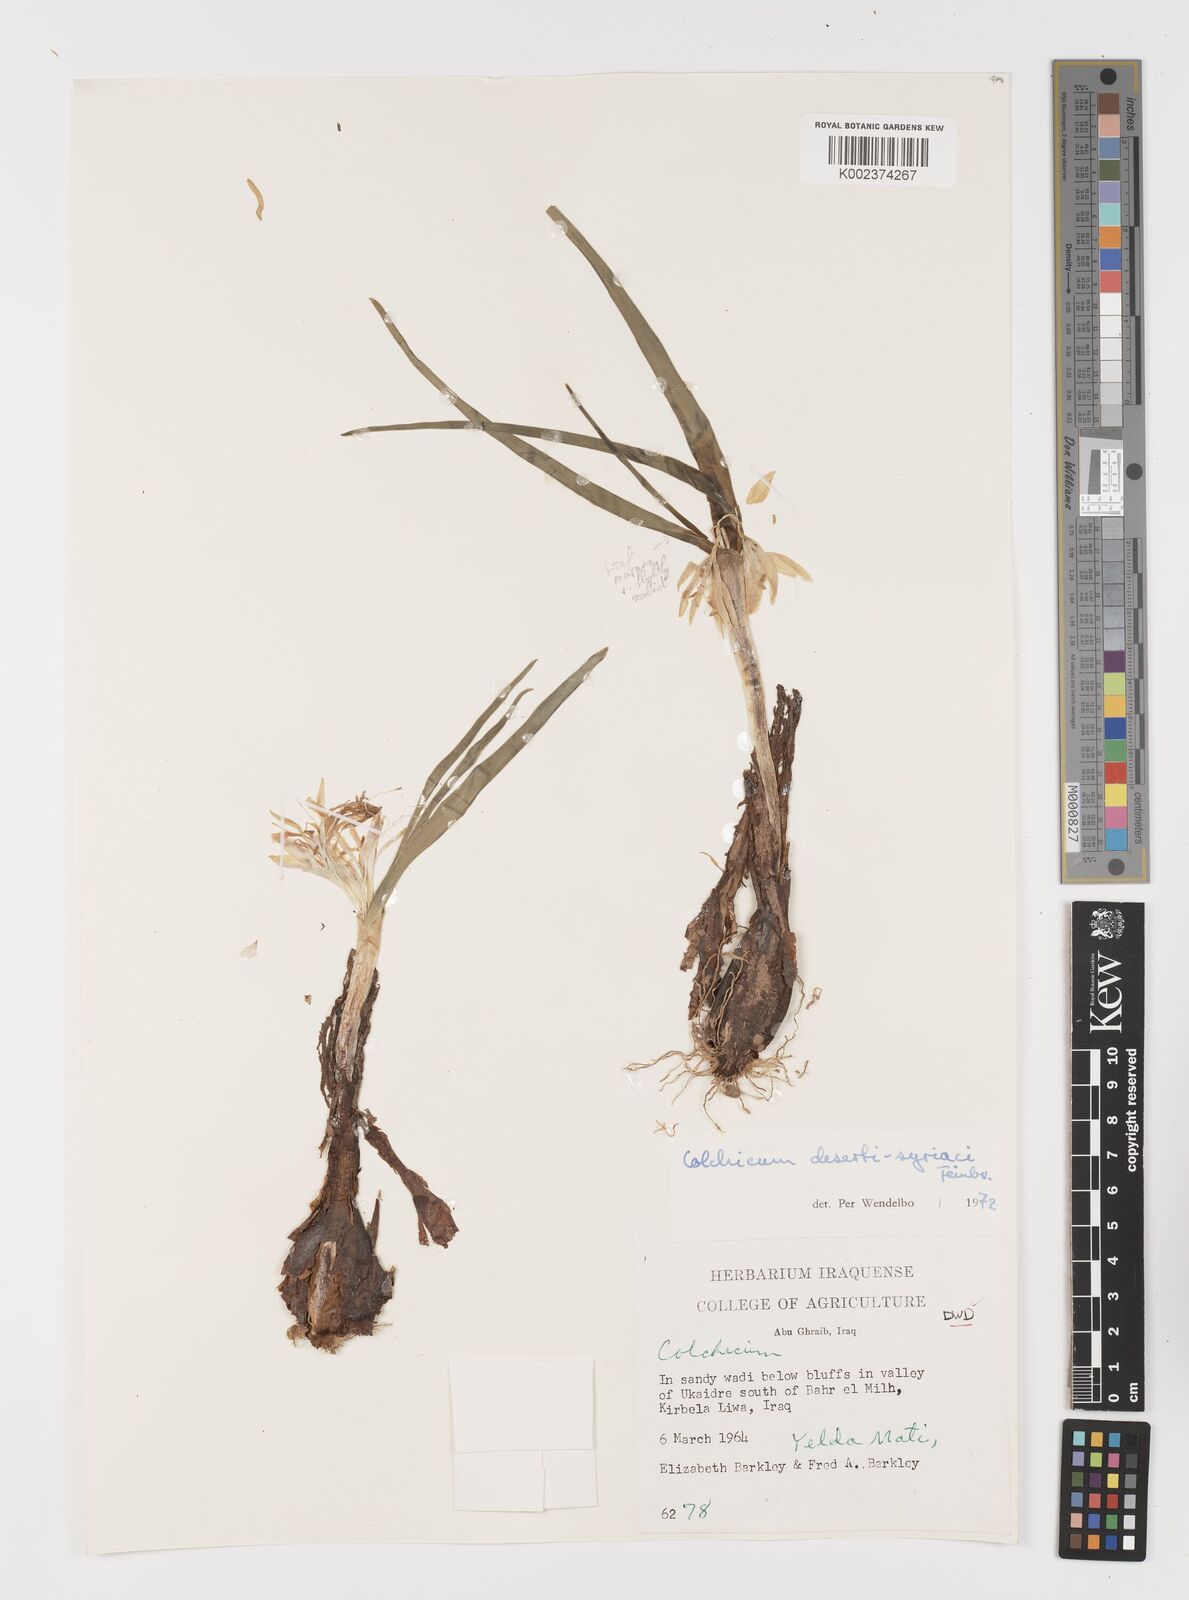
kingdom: Plantae
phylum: Tracheophyta
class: Liliopsida
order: Liliales
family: Colchicaceae
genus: Colchicum
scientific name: Colchicum schimperi
